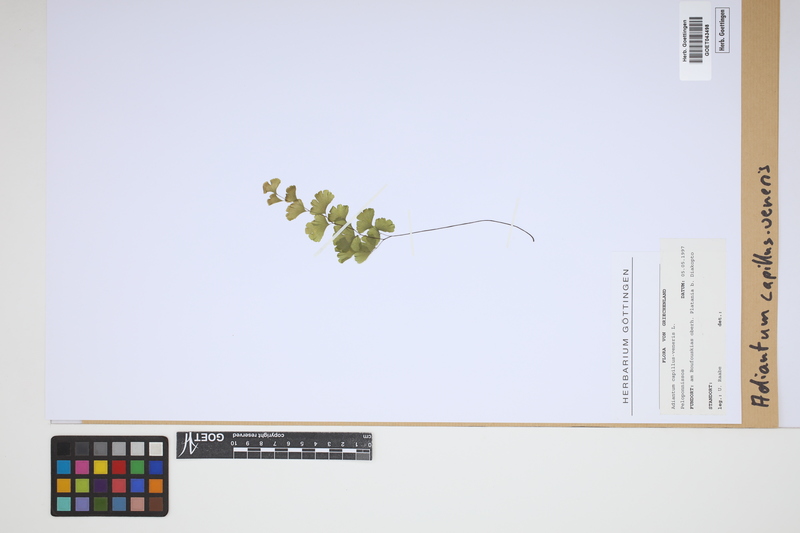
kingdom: Plantae
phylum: Tracheophyta
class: Polypodiopsida
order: Polypodiales
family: Pteridaceae
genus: Adiantum
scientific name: Adiantum capillus-veneris
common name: Maidenhair fern
